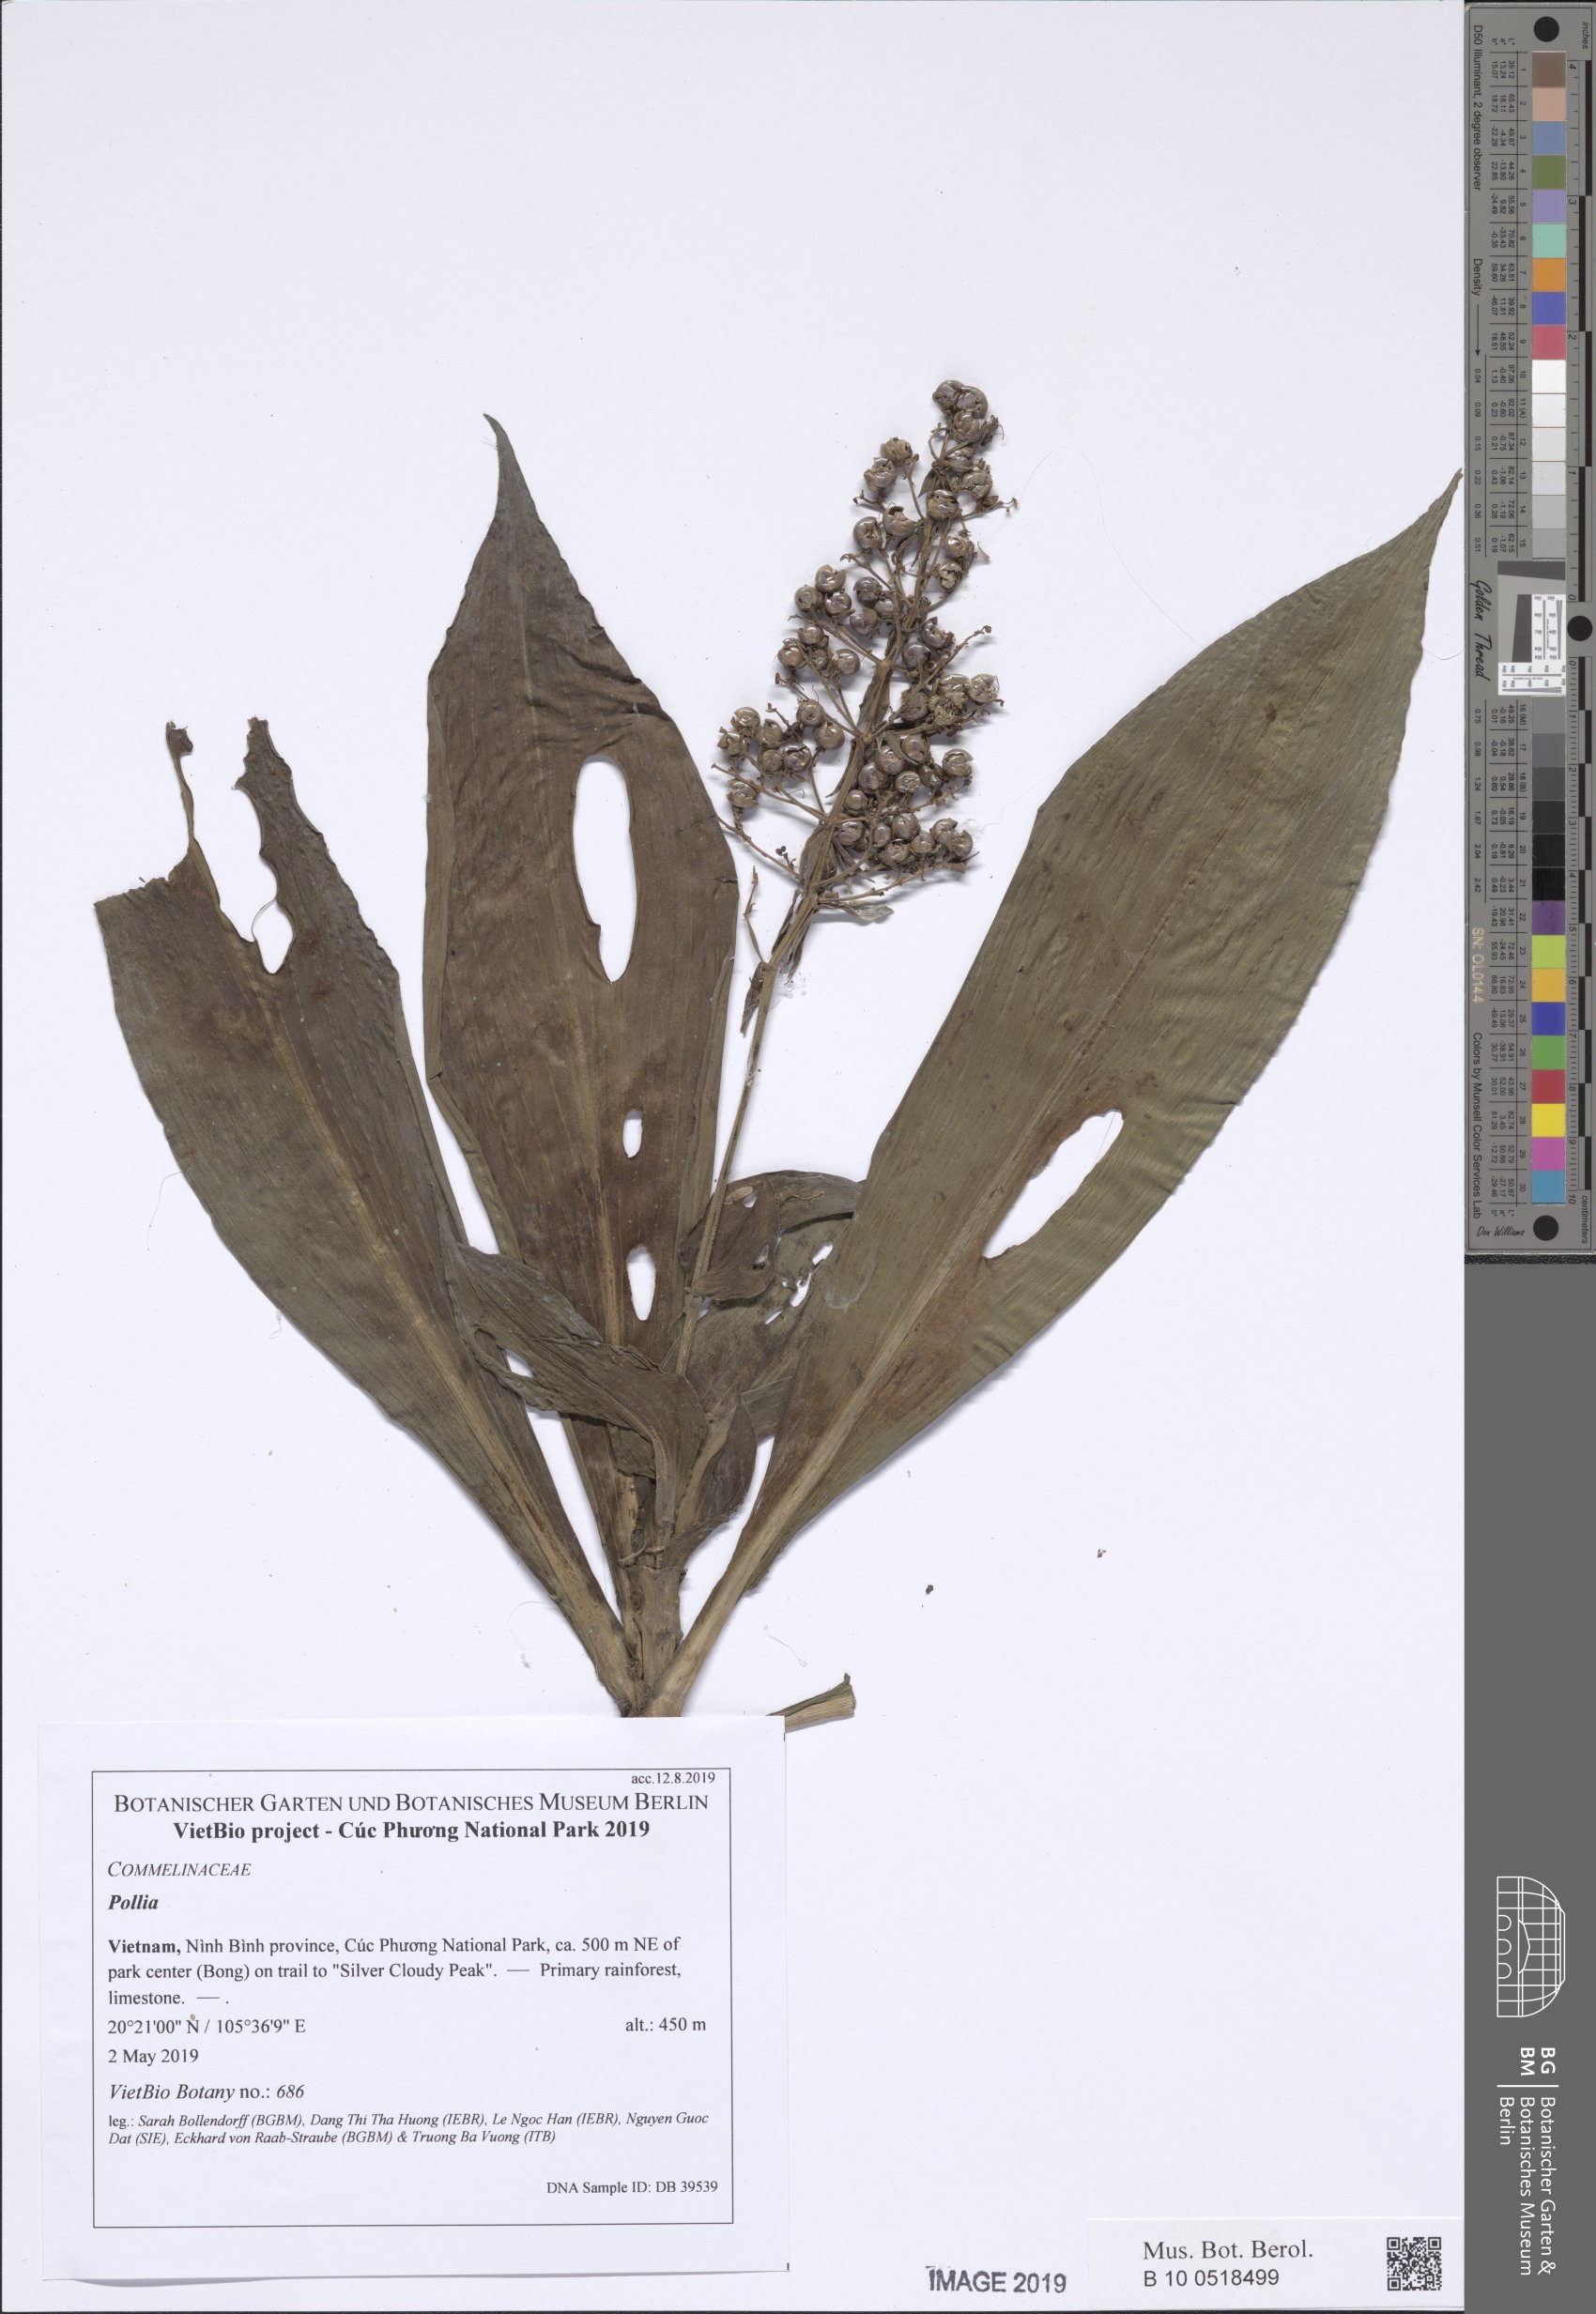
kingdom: Plantae
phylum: Tracheophyta
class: Liliopsida
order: Commelinales
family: Commelinaceae
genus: Pollia
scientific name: Pollia secundiflora
